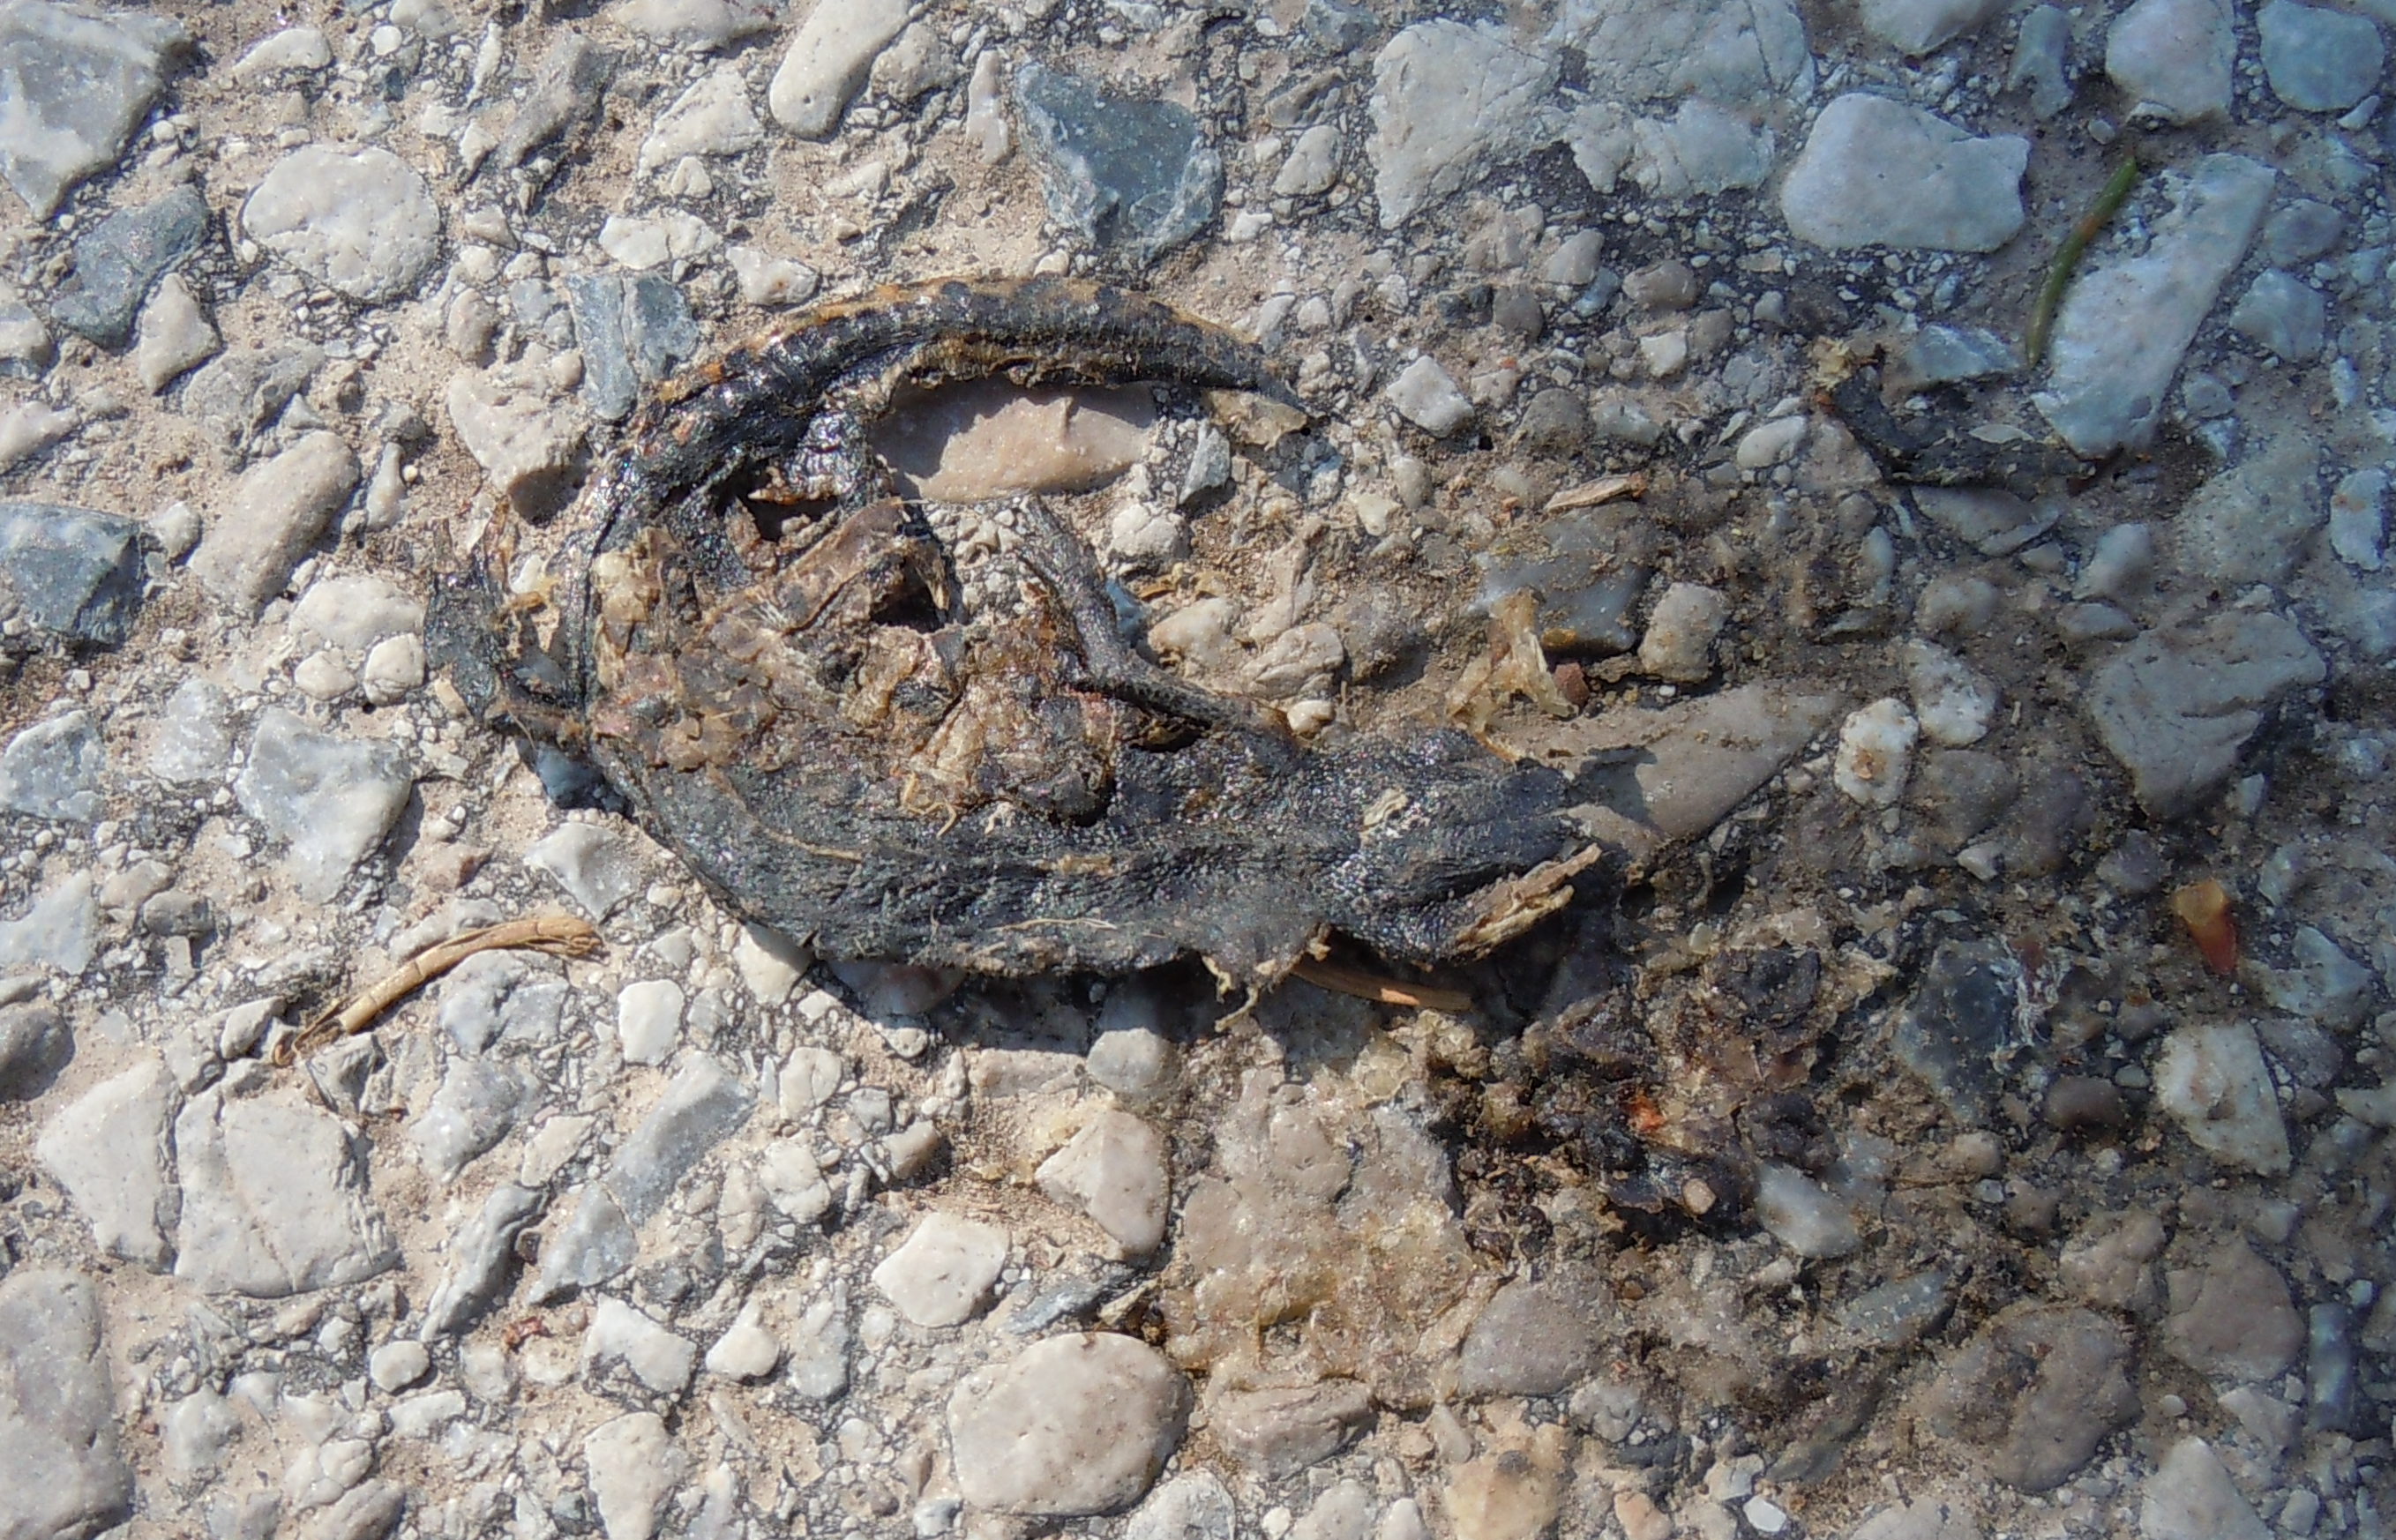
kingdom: Animalia
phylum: Chordata
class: Amphibia
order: Caudata
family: Salamandridae
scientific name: Salamandridae
